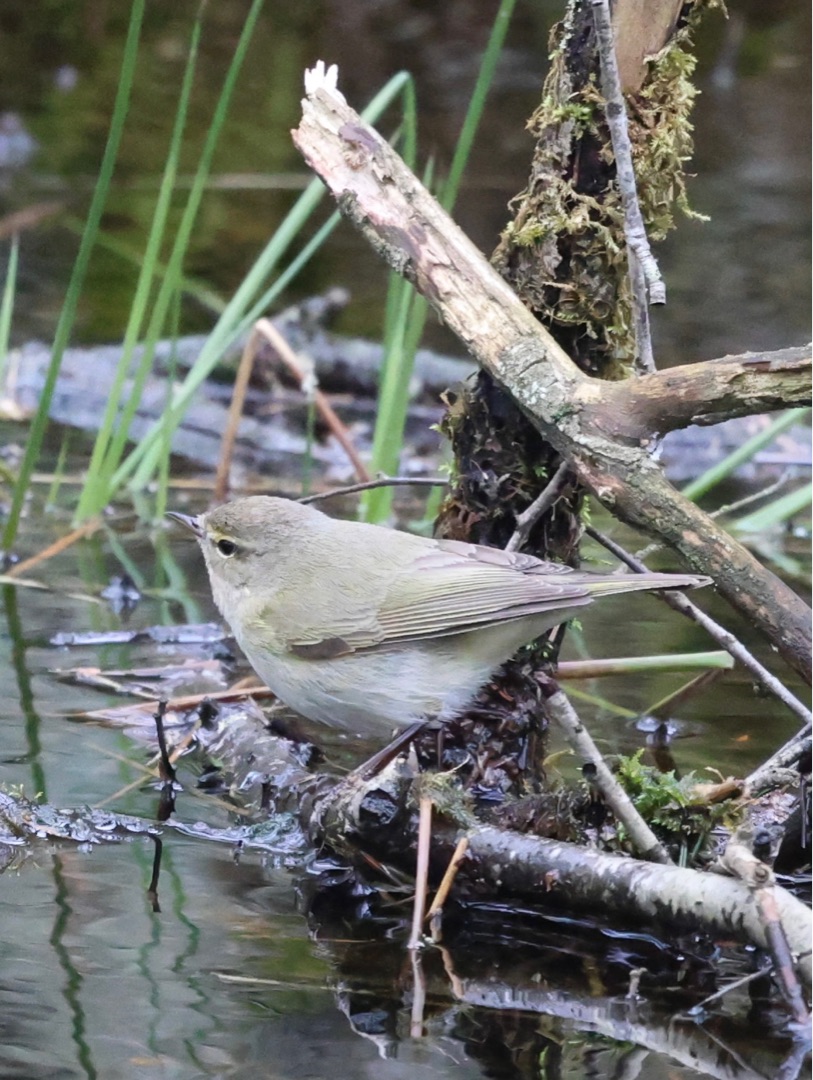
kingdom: Animalia
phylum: Chordata
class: Aves
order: Passeriformes
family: Phylloscopidae
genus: Phylloscopus
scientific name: Phylloscopus collybita
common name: Gransanger
